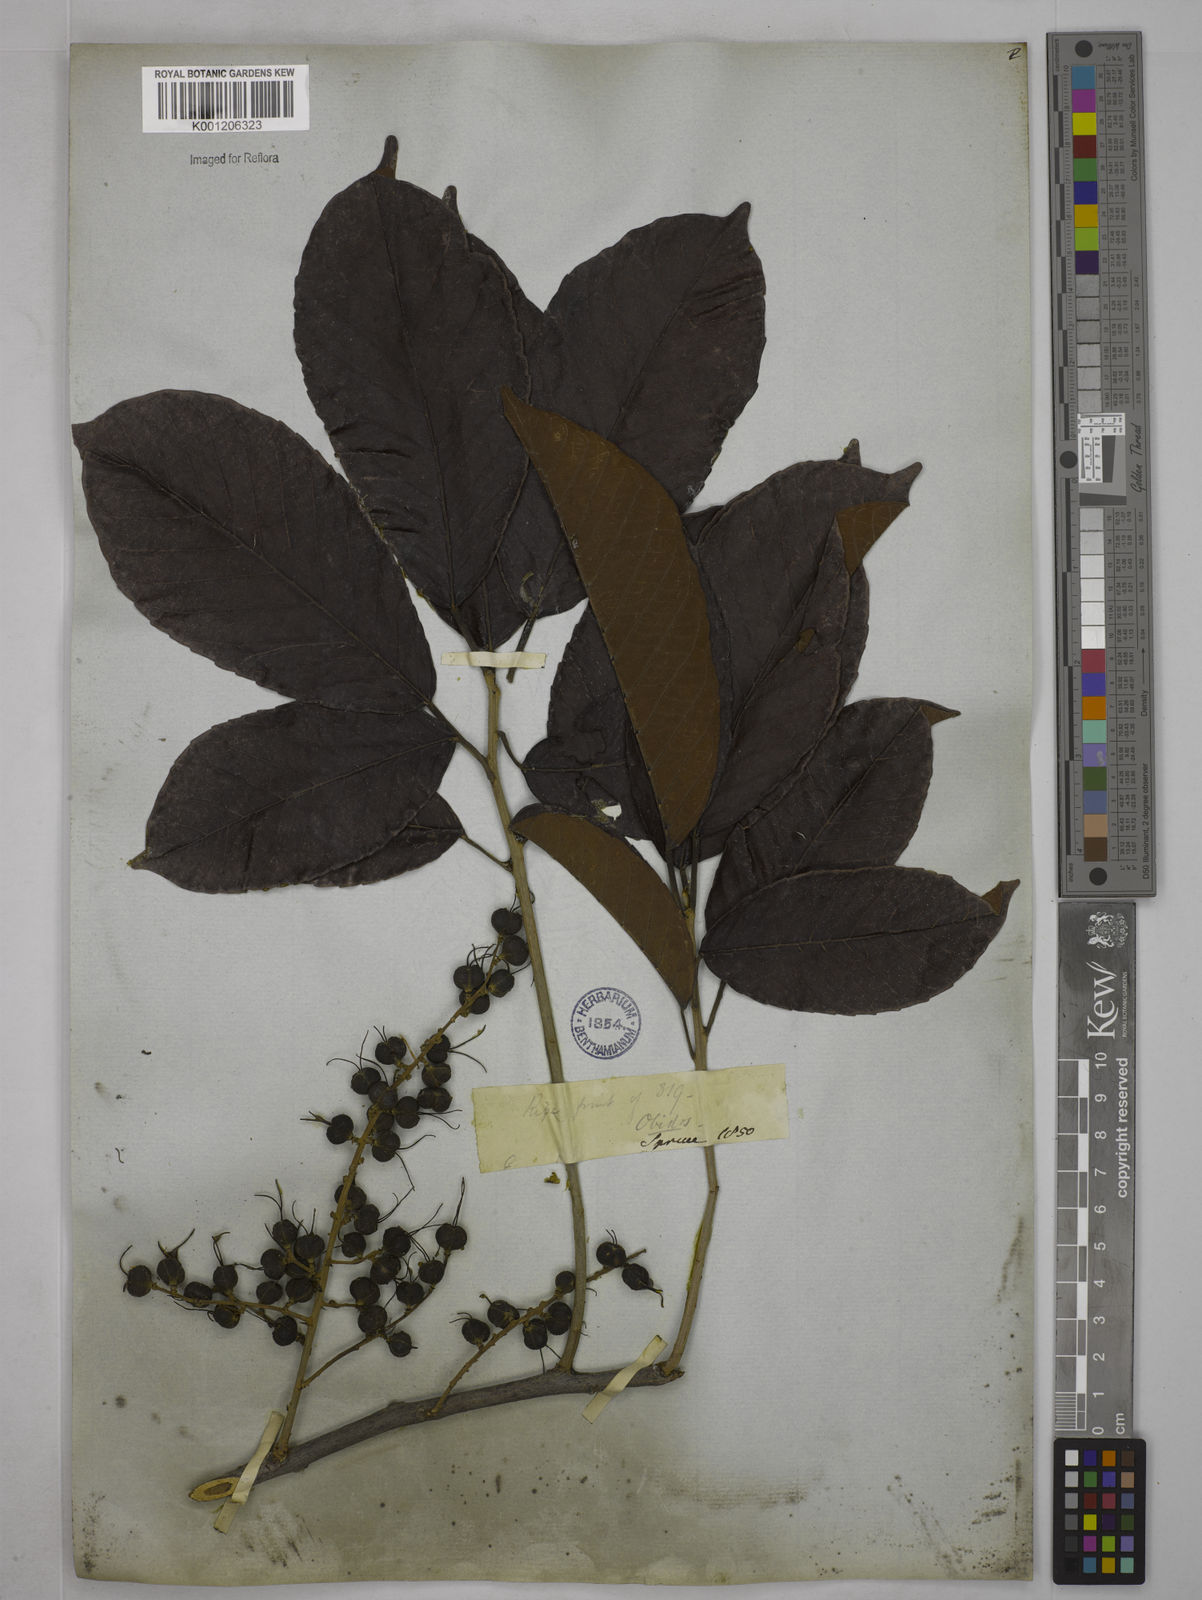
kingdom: Plantae
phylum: Tracheophyta
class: Magnoliopsida
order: Malpighiales
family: Euphorbiaceae
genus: Alchornea
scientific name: Alchornea discolor
